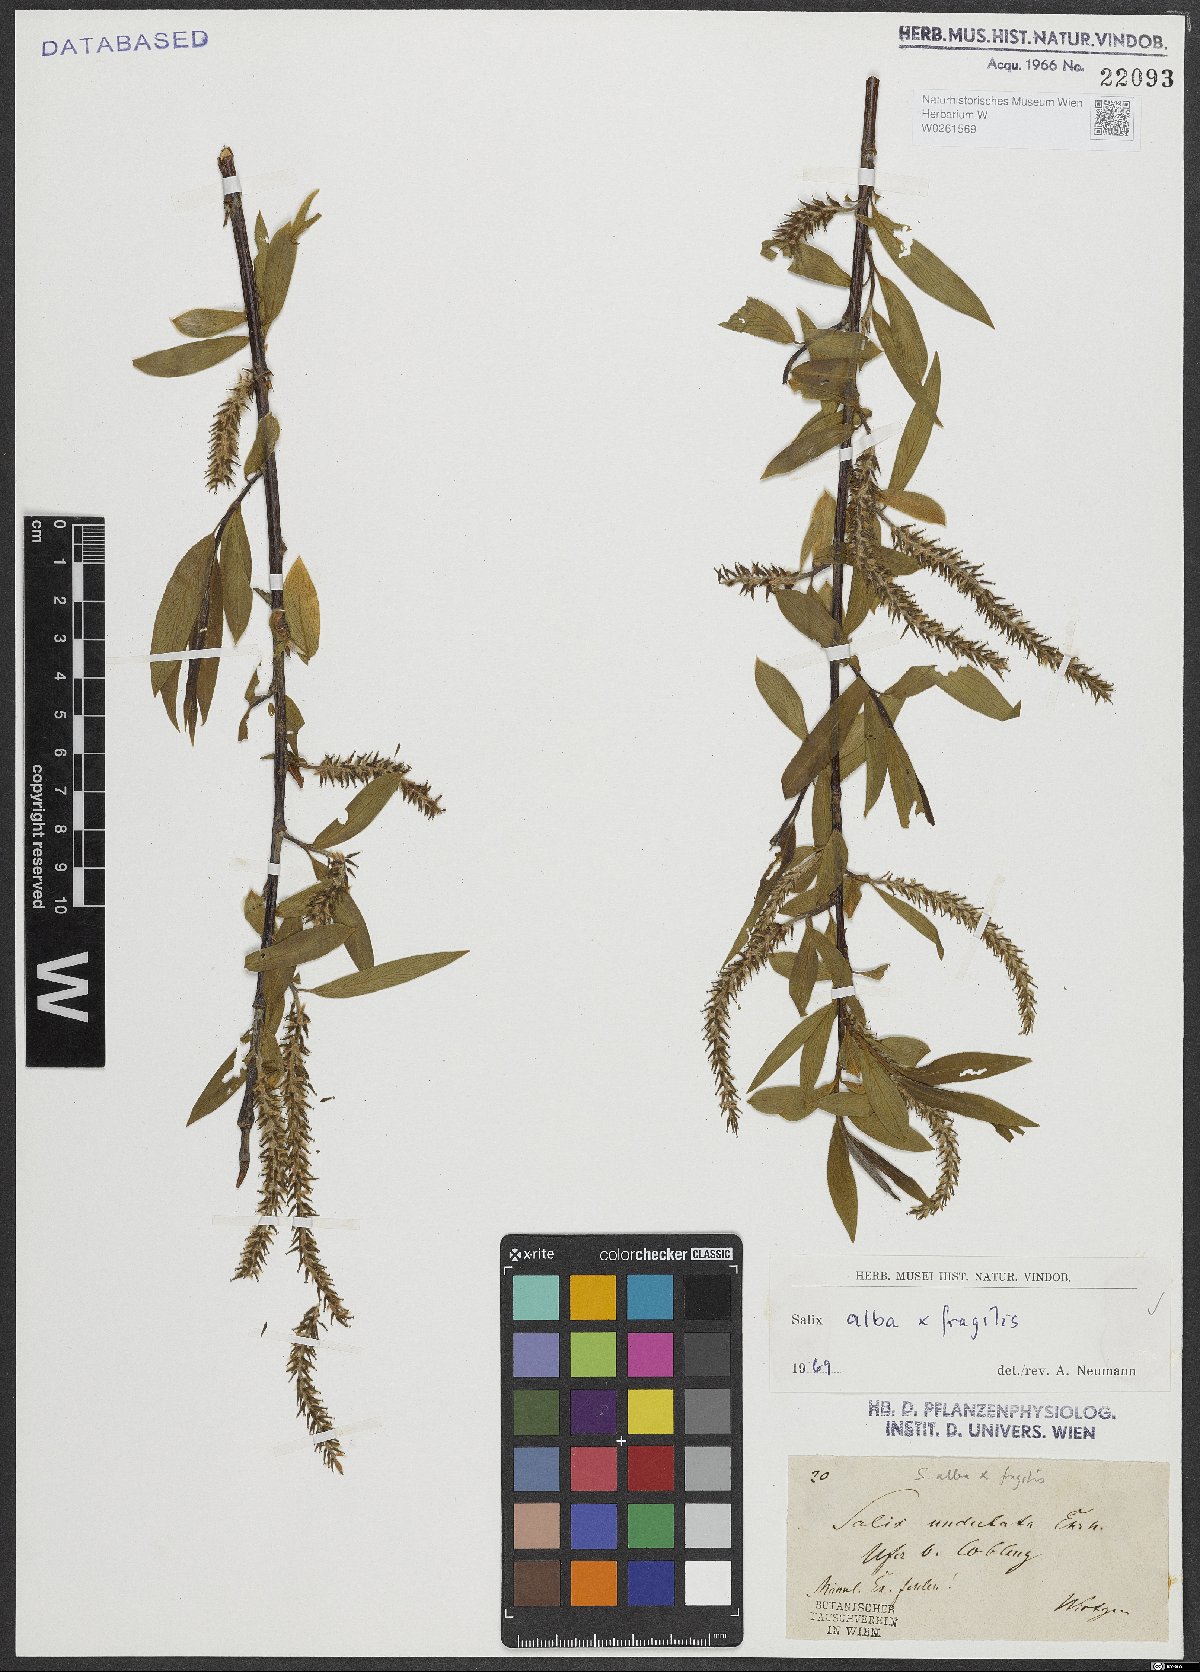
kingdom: Plantae
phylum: Tracheophyta
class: Magnoliopsida
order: Malpighiales
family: Salicaceae
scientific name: Salicaceae
